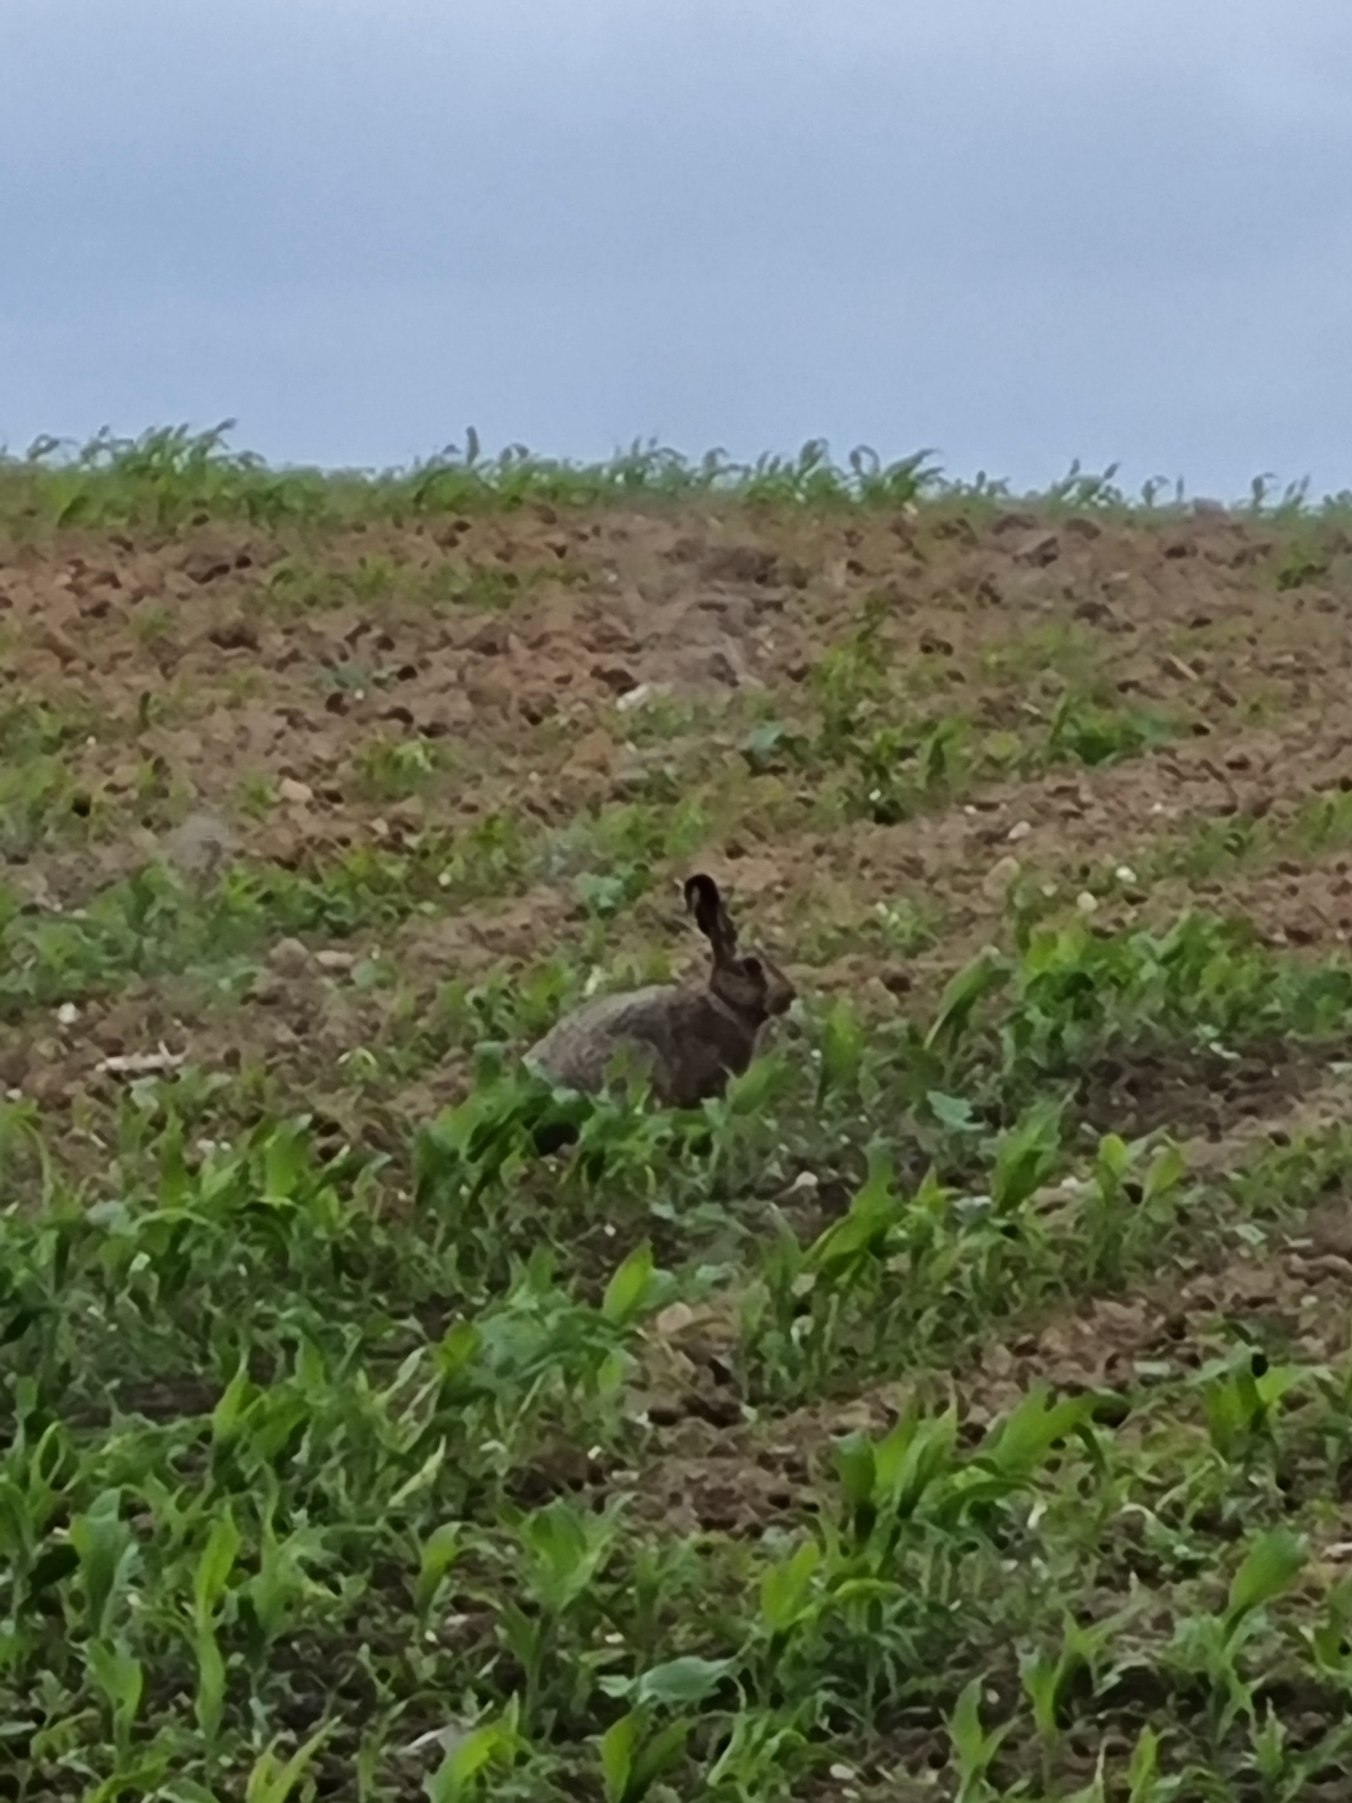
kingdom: Animalia
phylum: Chordata
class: Mammalia
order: Lagomorpha
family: Leporidae
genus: Lepus
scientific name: Lepus europaeus
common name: Hare
